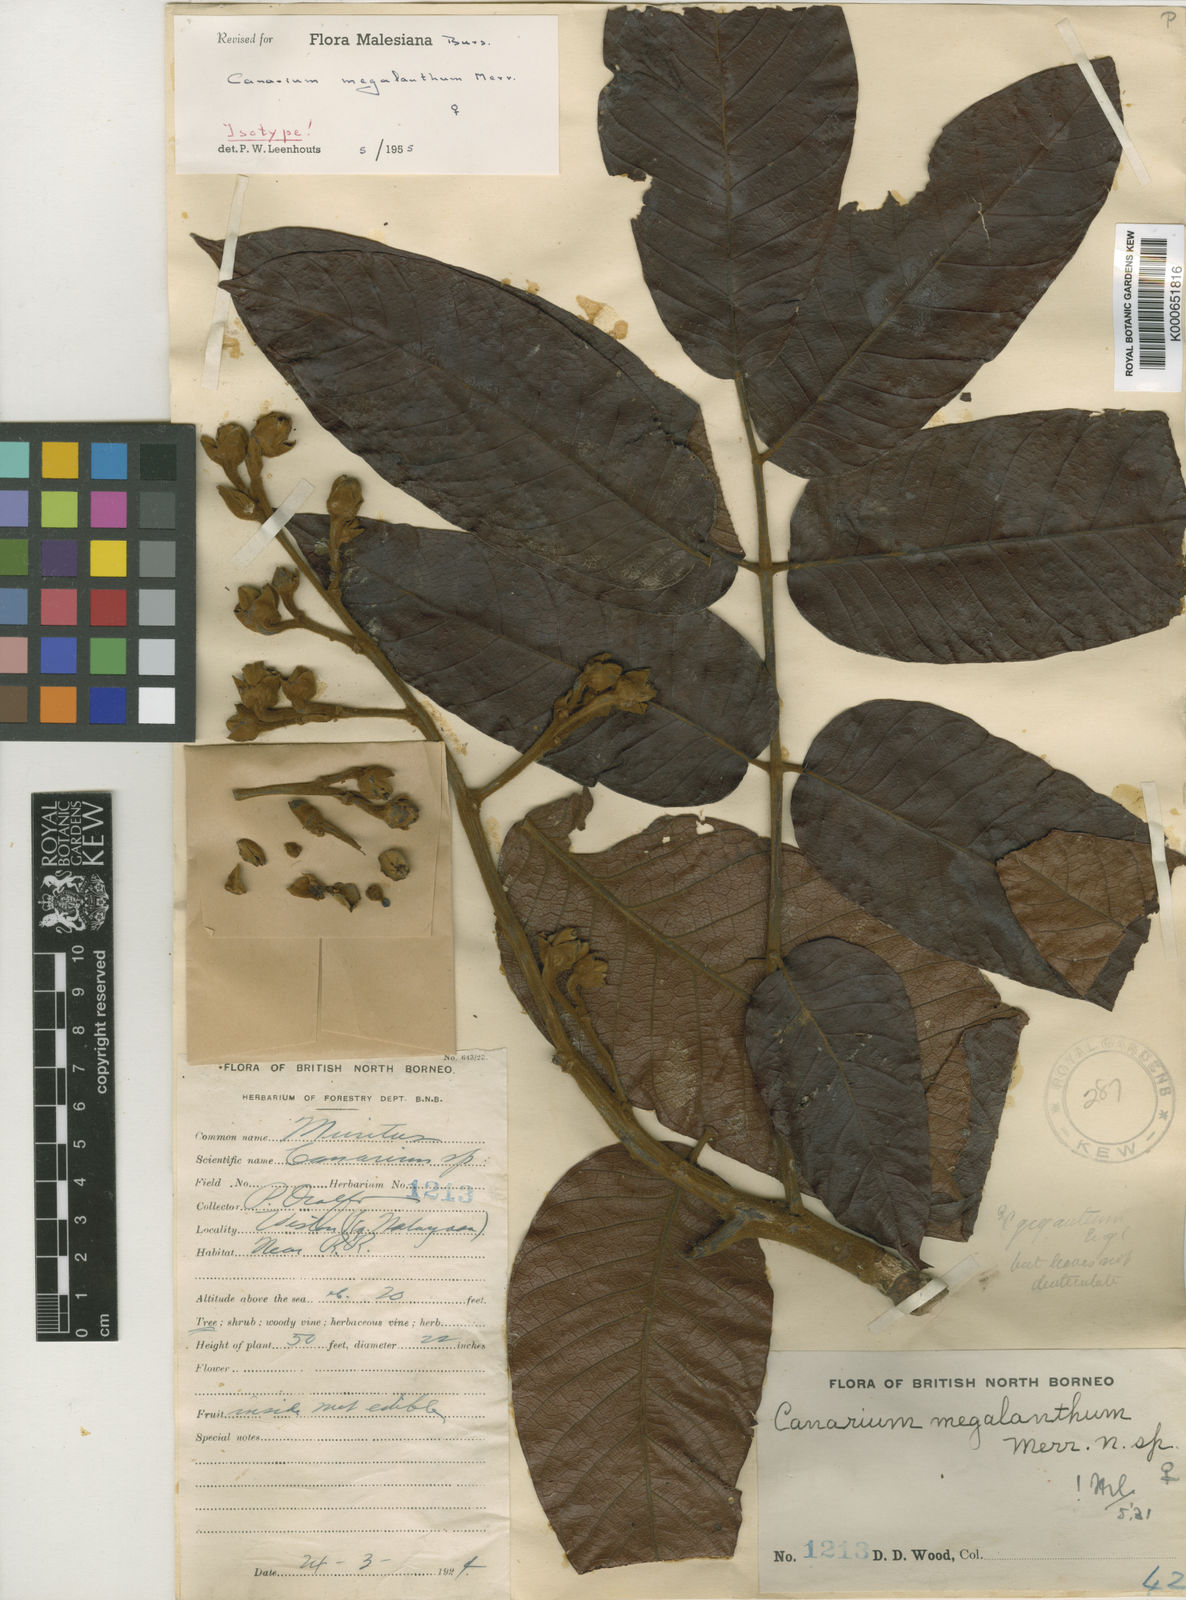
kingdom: Plantae
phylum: Tracheophyta
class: Magnoliopsida
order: Sapindales
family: Burseraceae
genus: Canarium
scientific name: Canarium megalanthum
